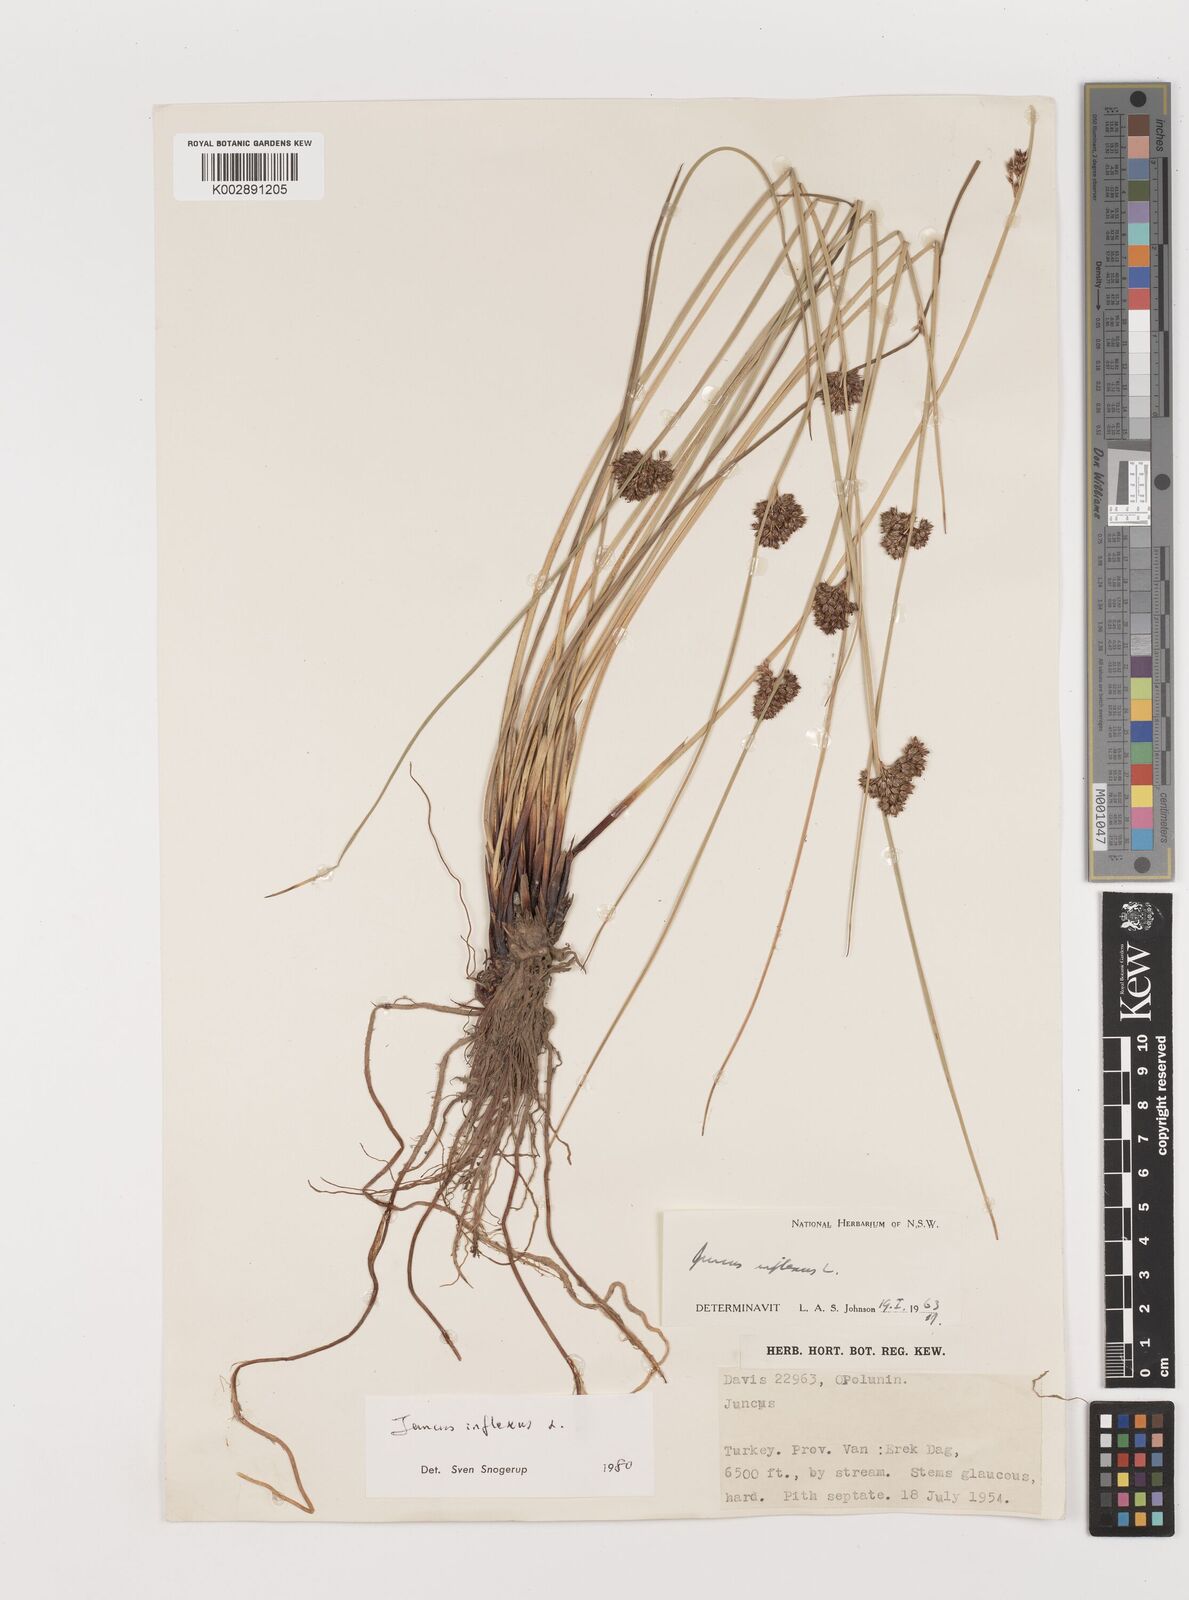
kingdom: Plantae
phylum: Tracheophyta
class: Liliopsida
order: Poales
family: Juncaceae
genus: Juncus
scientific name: Juncus inflexus
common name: Hard rush
